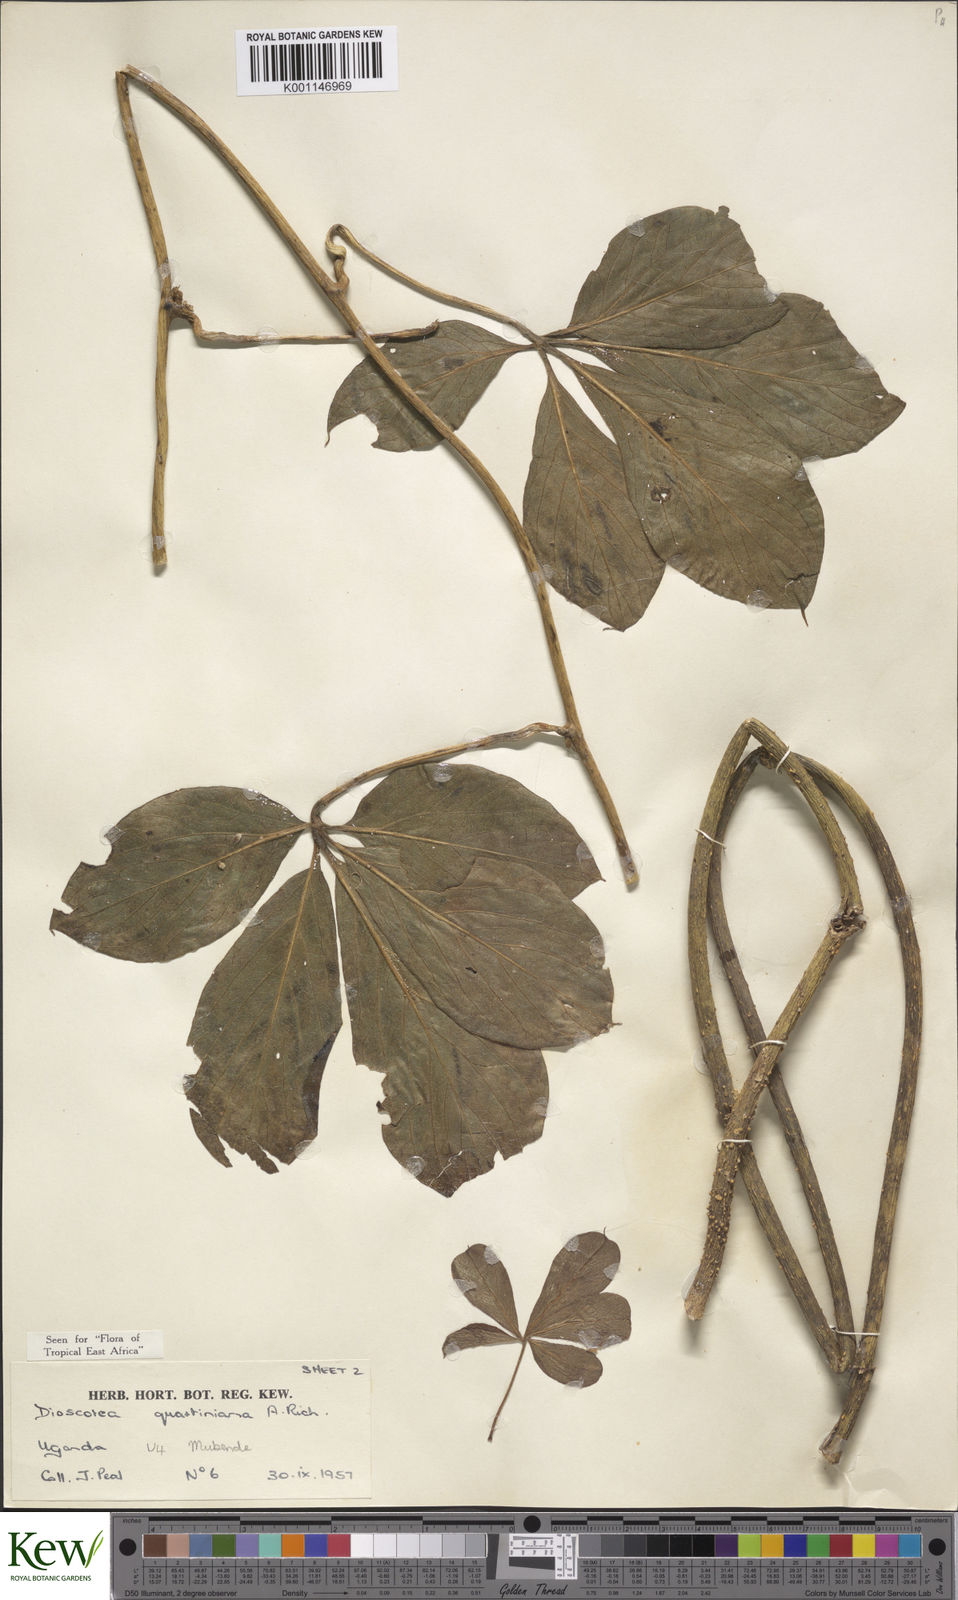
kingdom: Plantae
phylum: Tracheophyta
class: Liliopsida
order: Dioscoreales
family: Dioscoreaceae
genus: Dioscorea
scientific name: Dioscorea quartiniana
